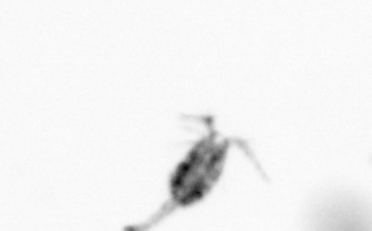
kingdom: Animalia
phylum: Arthropoda
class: Copepoda
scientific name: Copepoda
